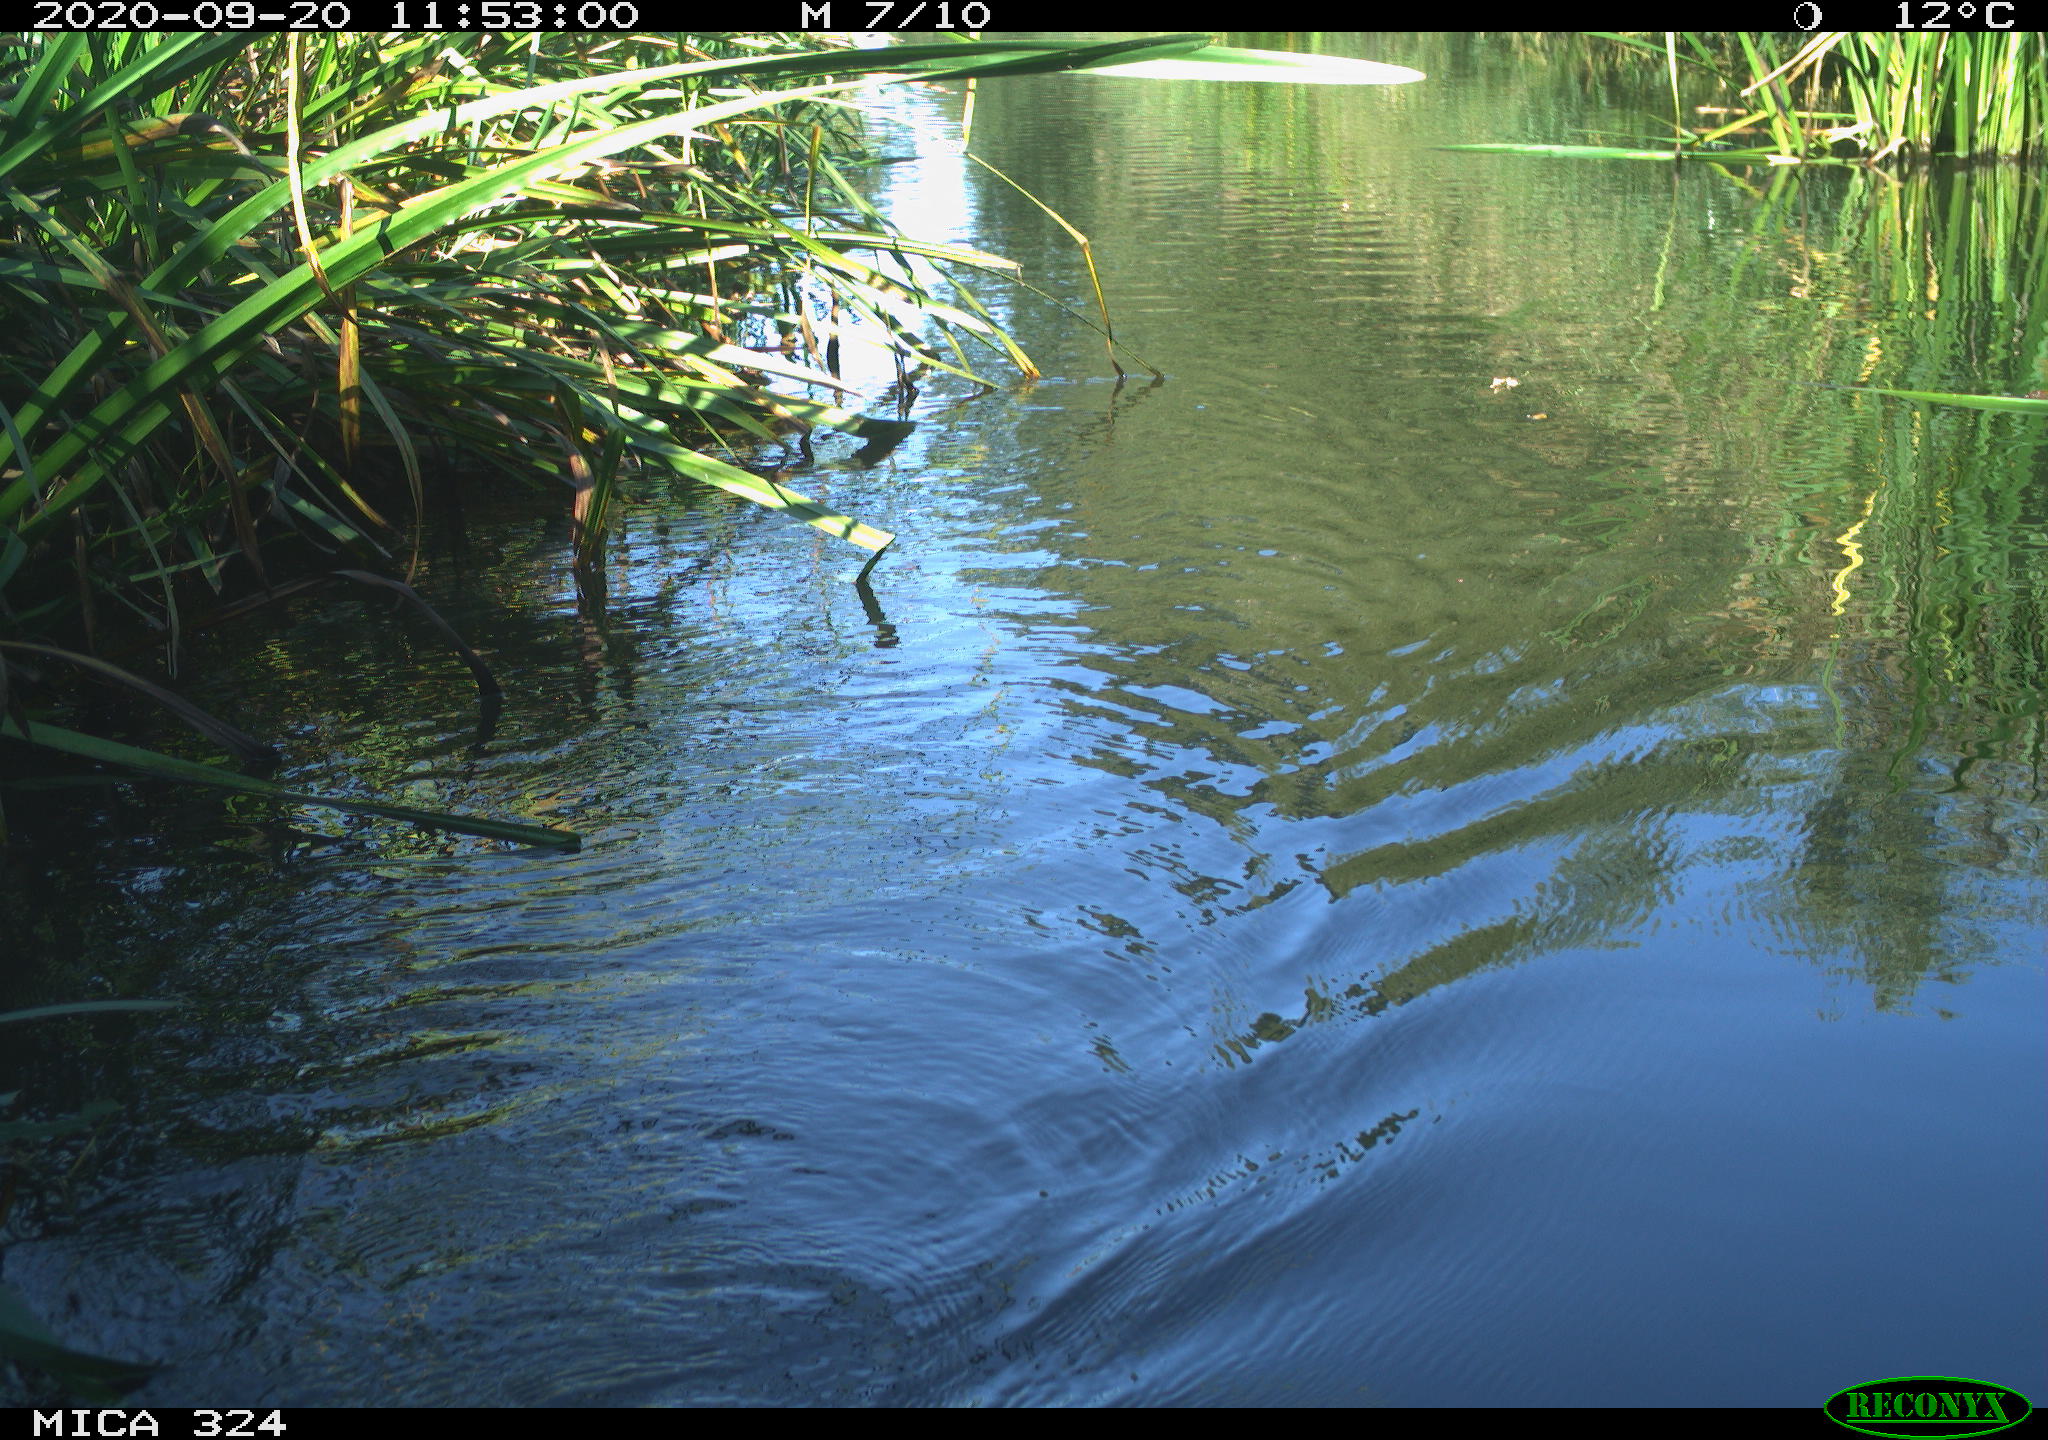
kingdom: Animalia
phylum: Chordata
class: Mammalia
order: Rodentia
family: Cricetidae
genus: Ondatra
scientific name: Ondatra zibethicus
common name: Muskrat
